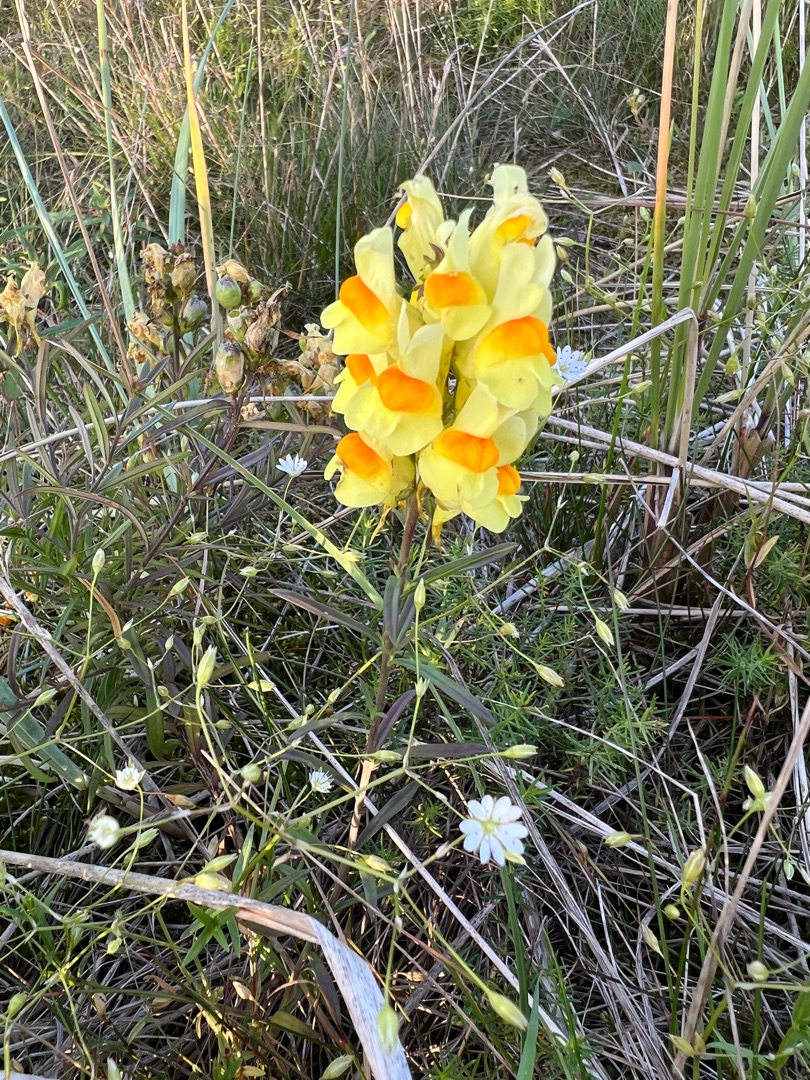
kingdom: Plantae
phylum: Tracheophyta
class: Magnoliopsida
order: Lamiales
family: Plantaginaceae
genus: Linaria
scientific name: Linaria vulgaris
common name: Almindelig torskemund
